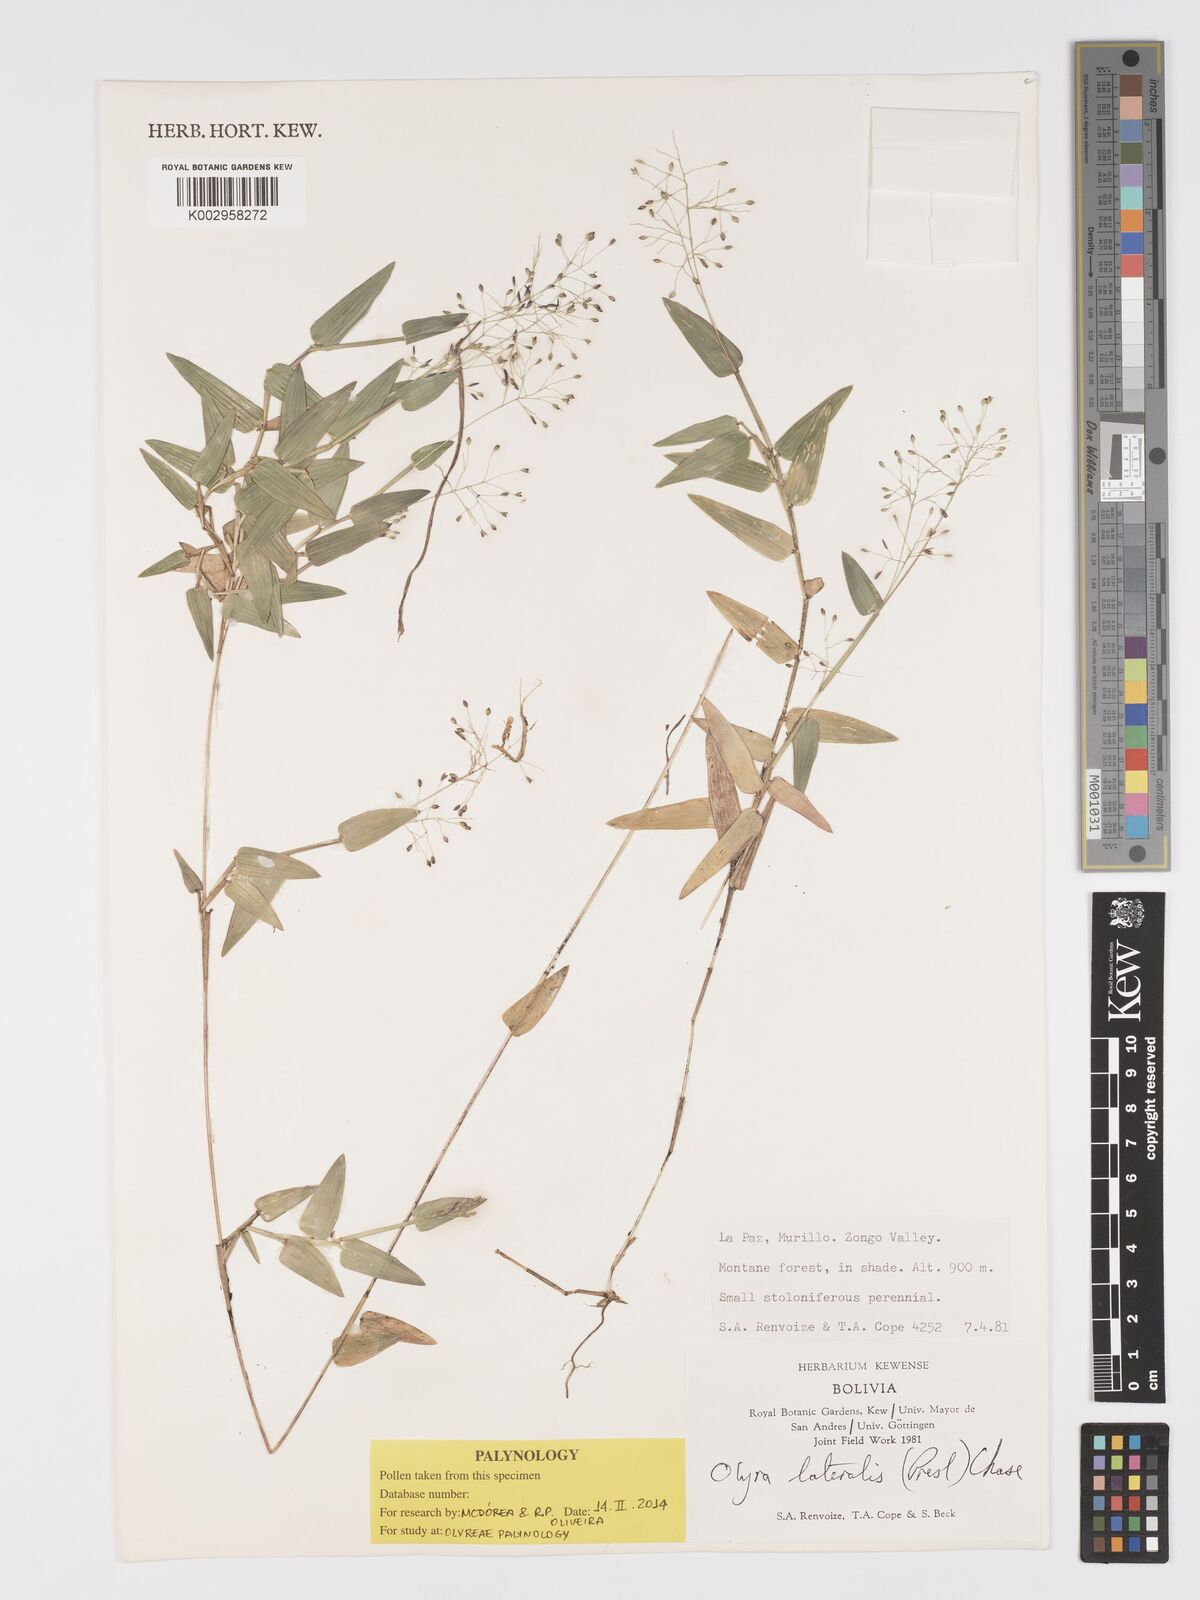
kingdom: Plantae
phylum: Tracheophyta
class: Liliopsida
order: Poales
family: Poaceae
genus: Parodiolyra
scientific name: Parodiolyra lateralis
